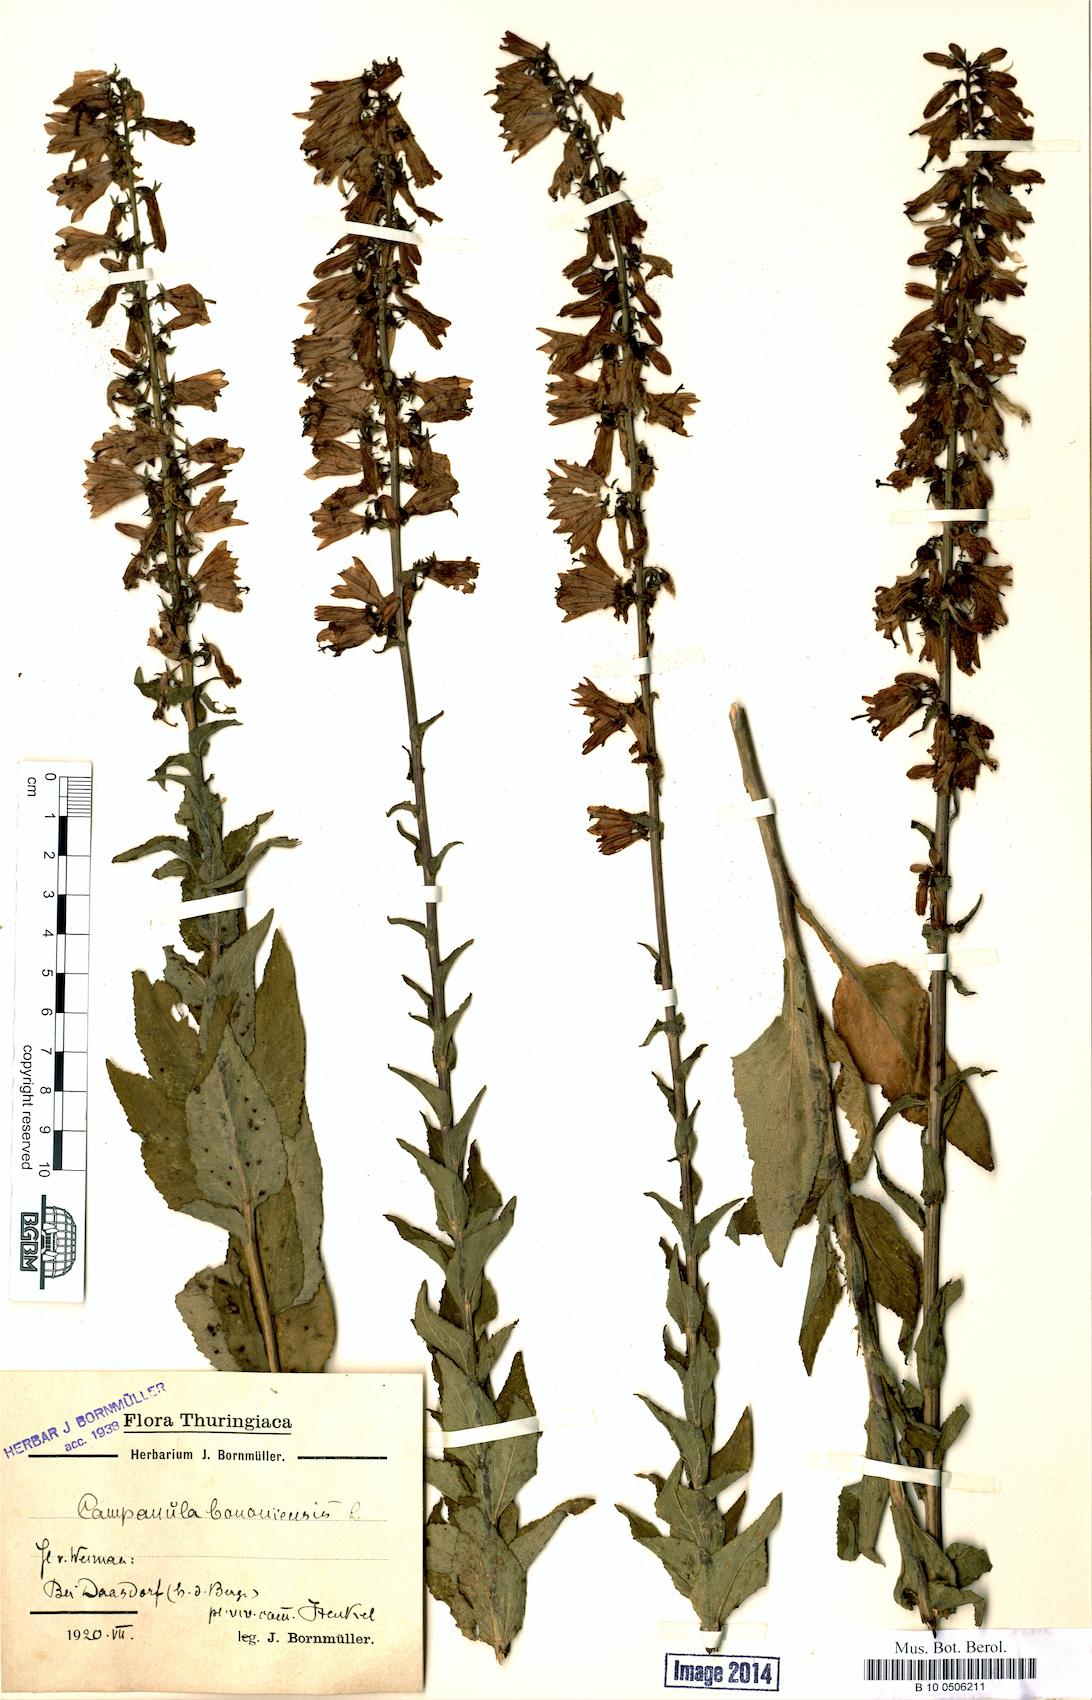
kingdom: Plantae
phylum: Tracheophyta
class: Magnoliopsida
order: Asterales
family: Campanulaceae
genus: Campanula
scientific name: Campanula bononiensis
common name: Pale bellflower
